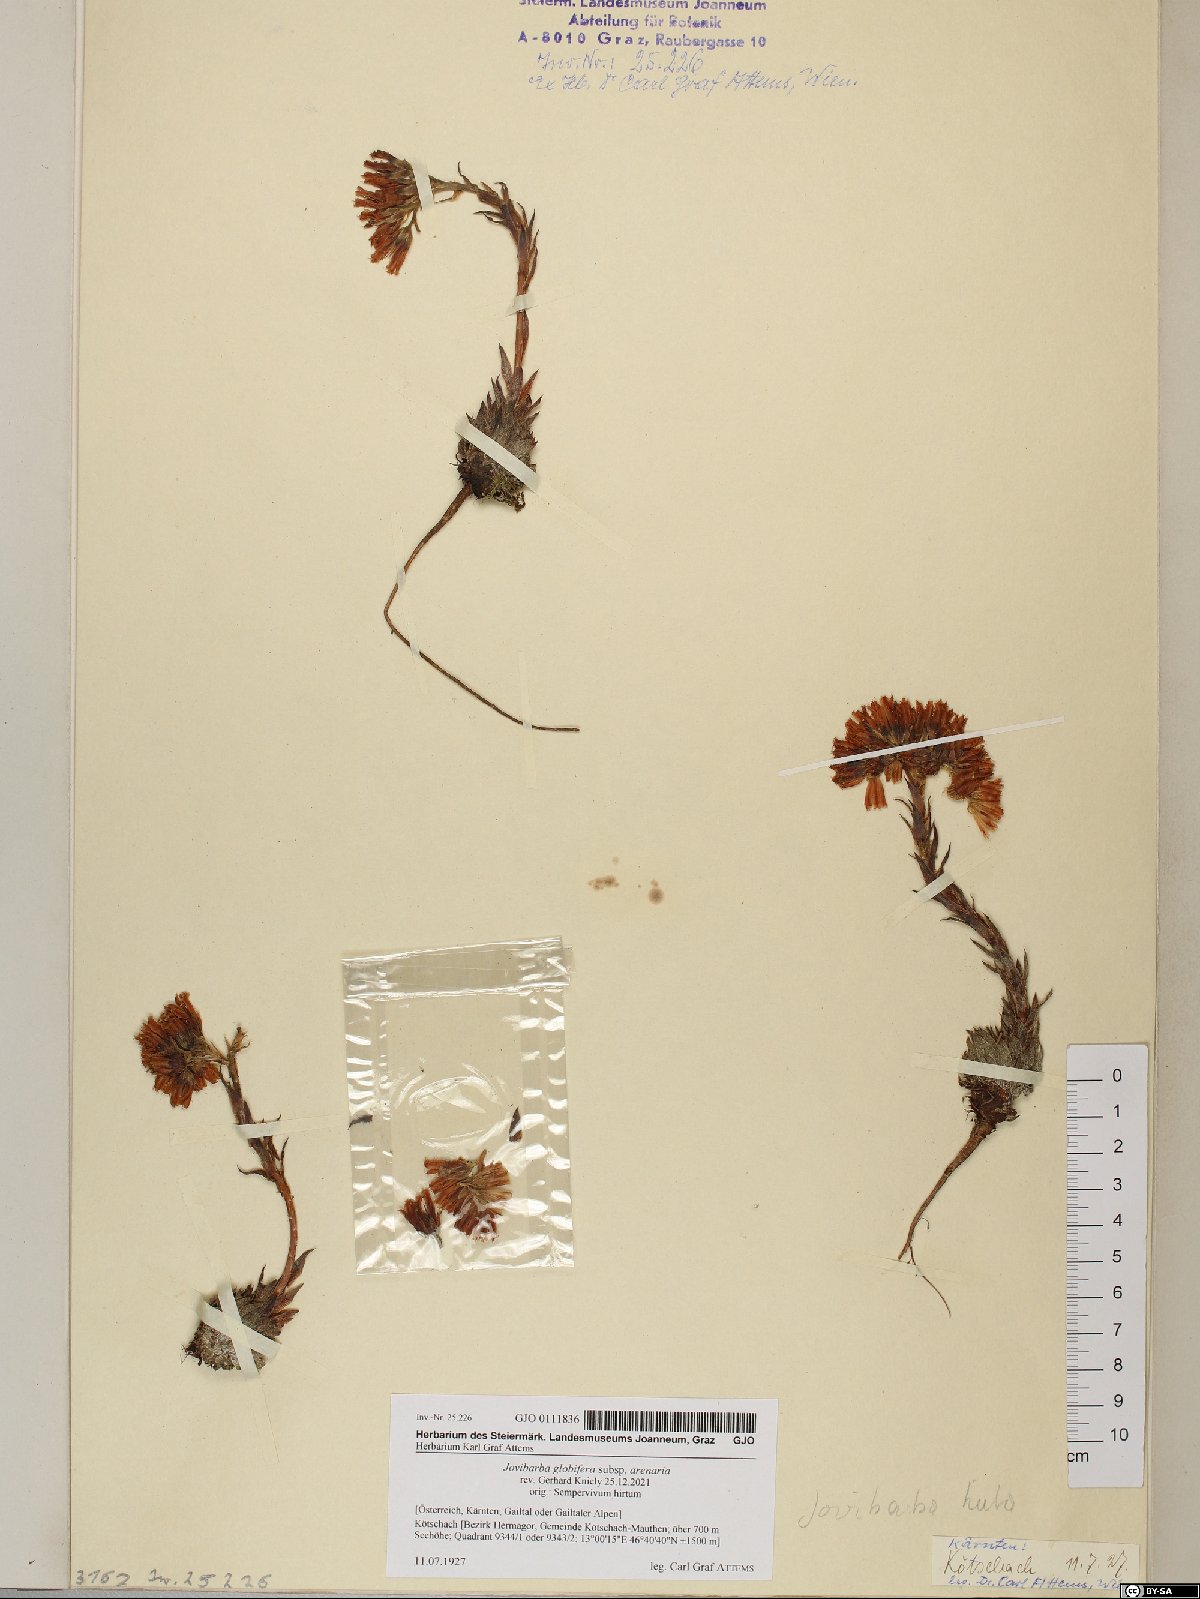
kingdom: Plantae
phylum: Tracheophyta
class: Magnoliopsida
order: Saxifragales
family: Crassulaceae
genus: Sempervivum
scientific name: Sempervivum globiferum
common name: Rolling hen-and-chicks
